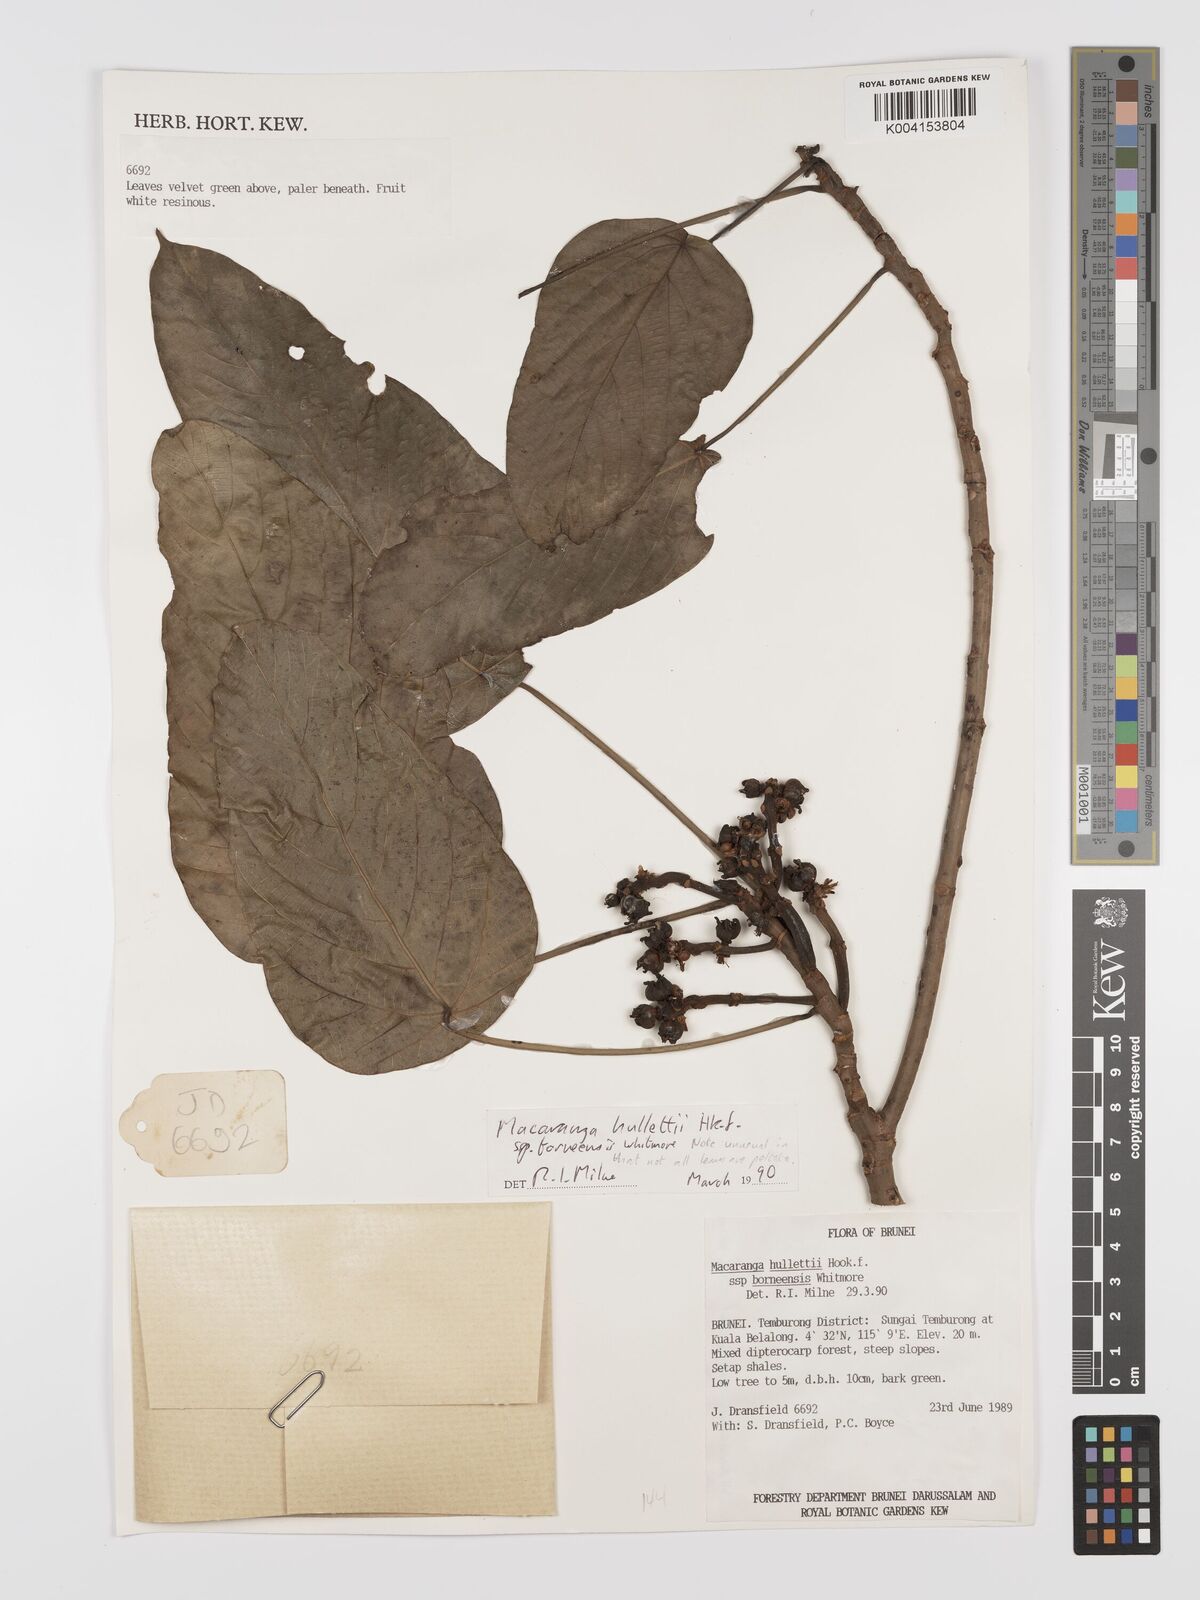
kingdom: Plantae
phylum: Tracheophyta
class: Magnoliopsida
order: Malpighiales
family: Euphorbiaceae
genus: Macaranga
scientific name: Macaranga hullettii
